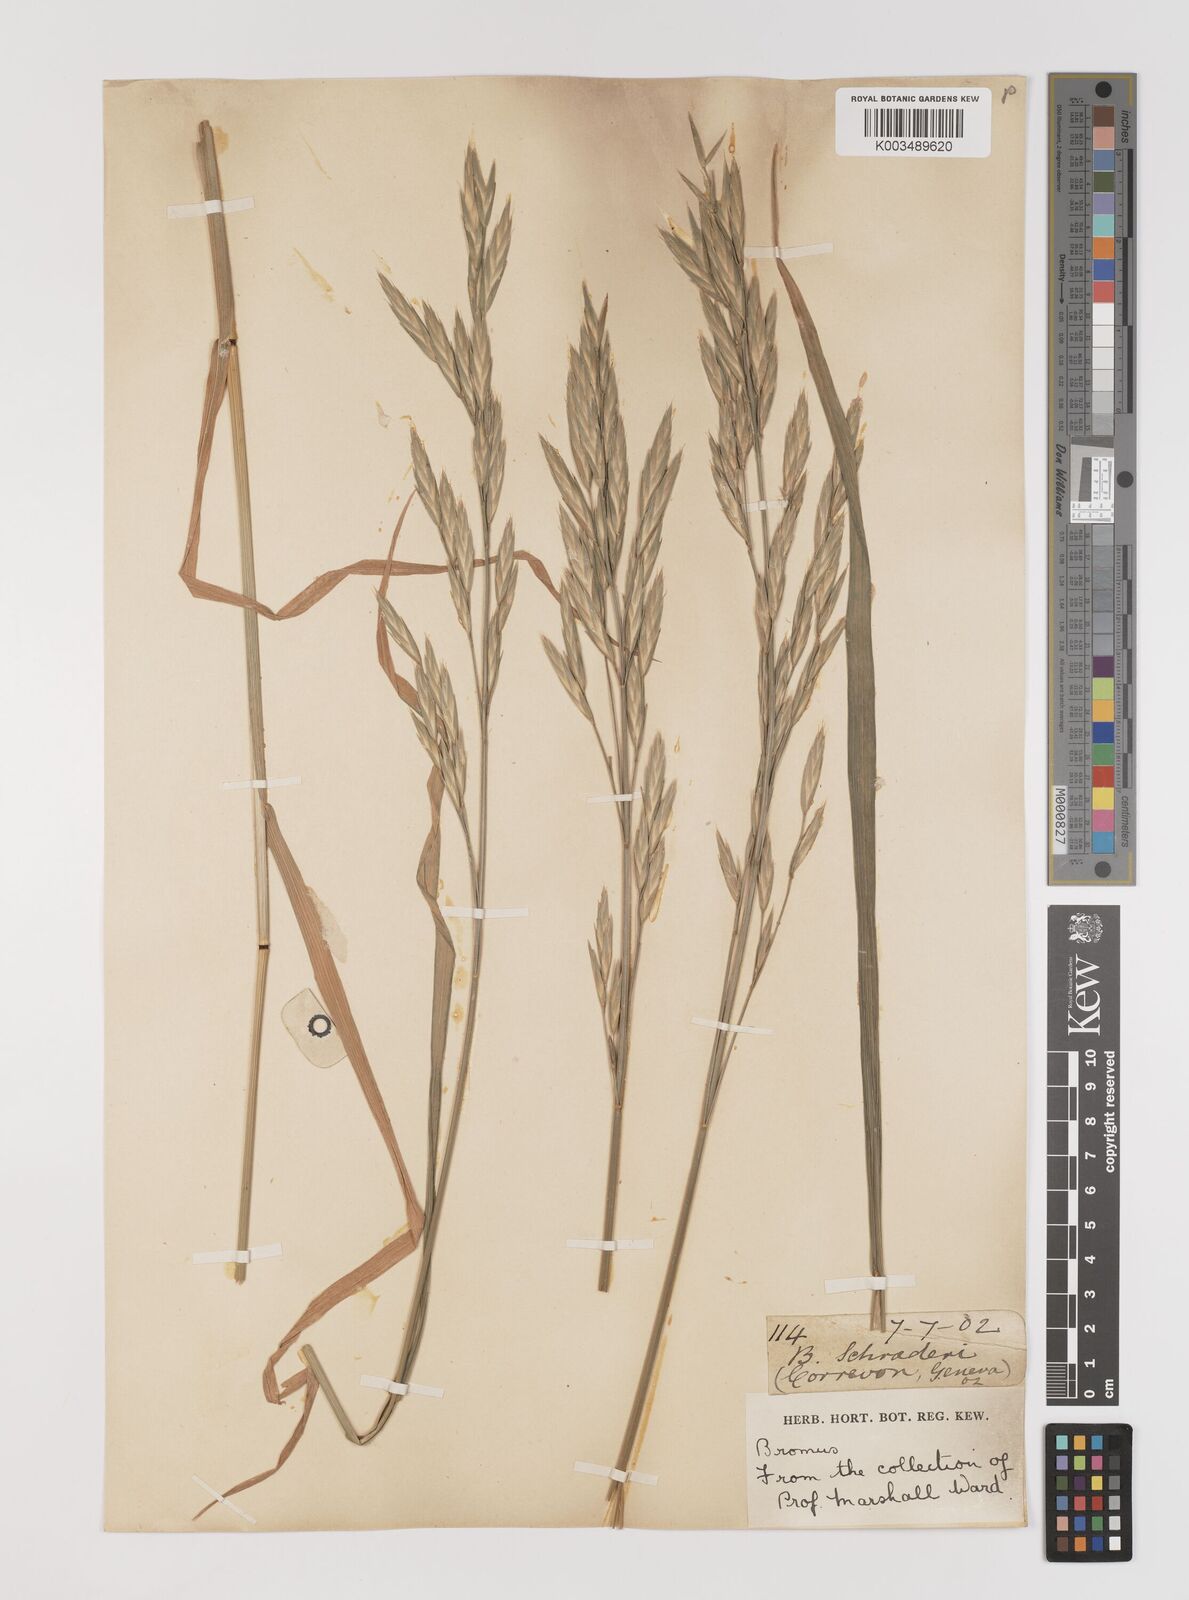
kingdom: Plantae
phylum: Tracheophyta
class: Liliopsida
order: Poales
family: Poaceae
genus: Bromus
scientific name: Bromus catharticus
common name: Rescuegrass
